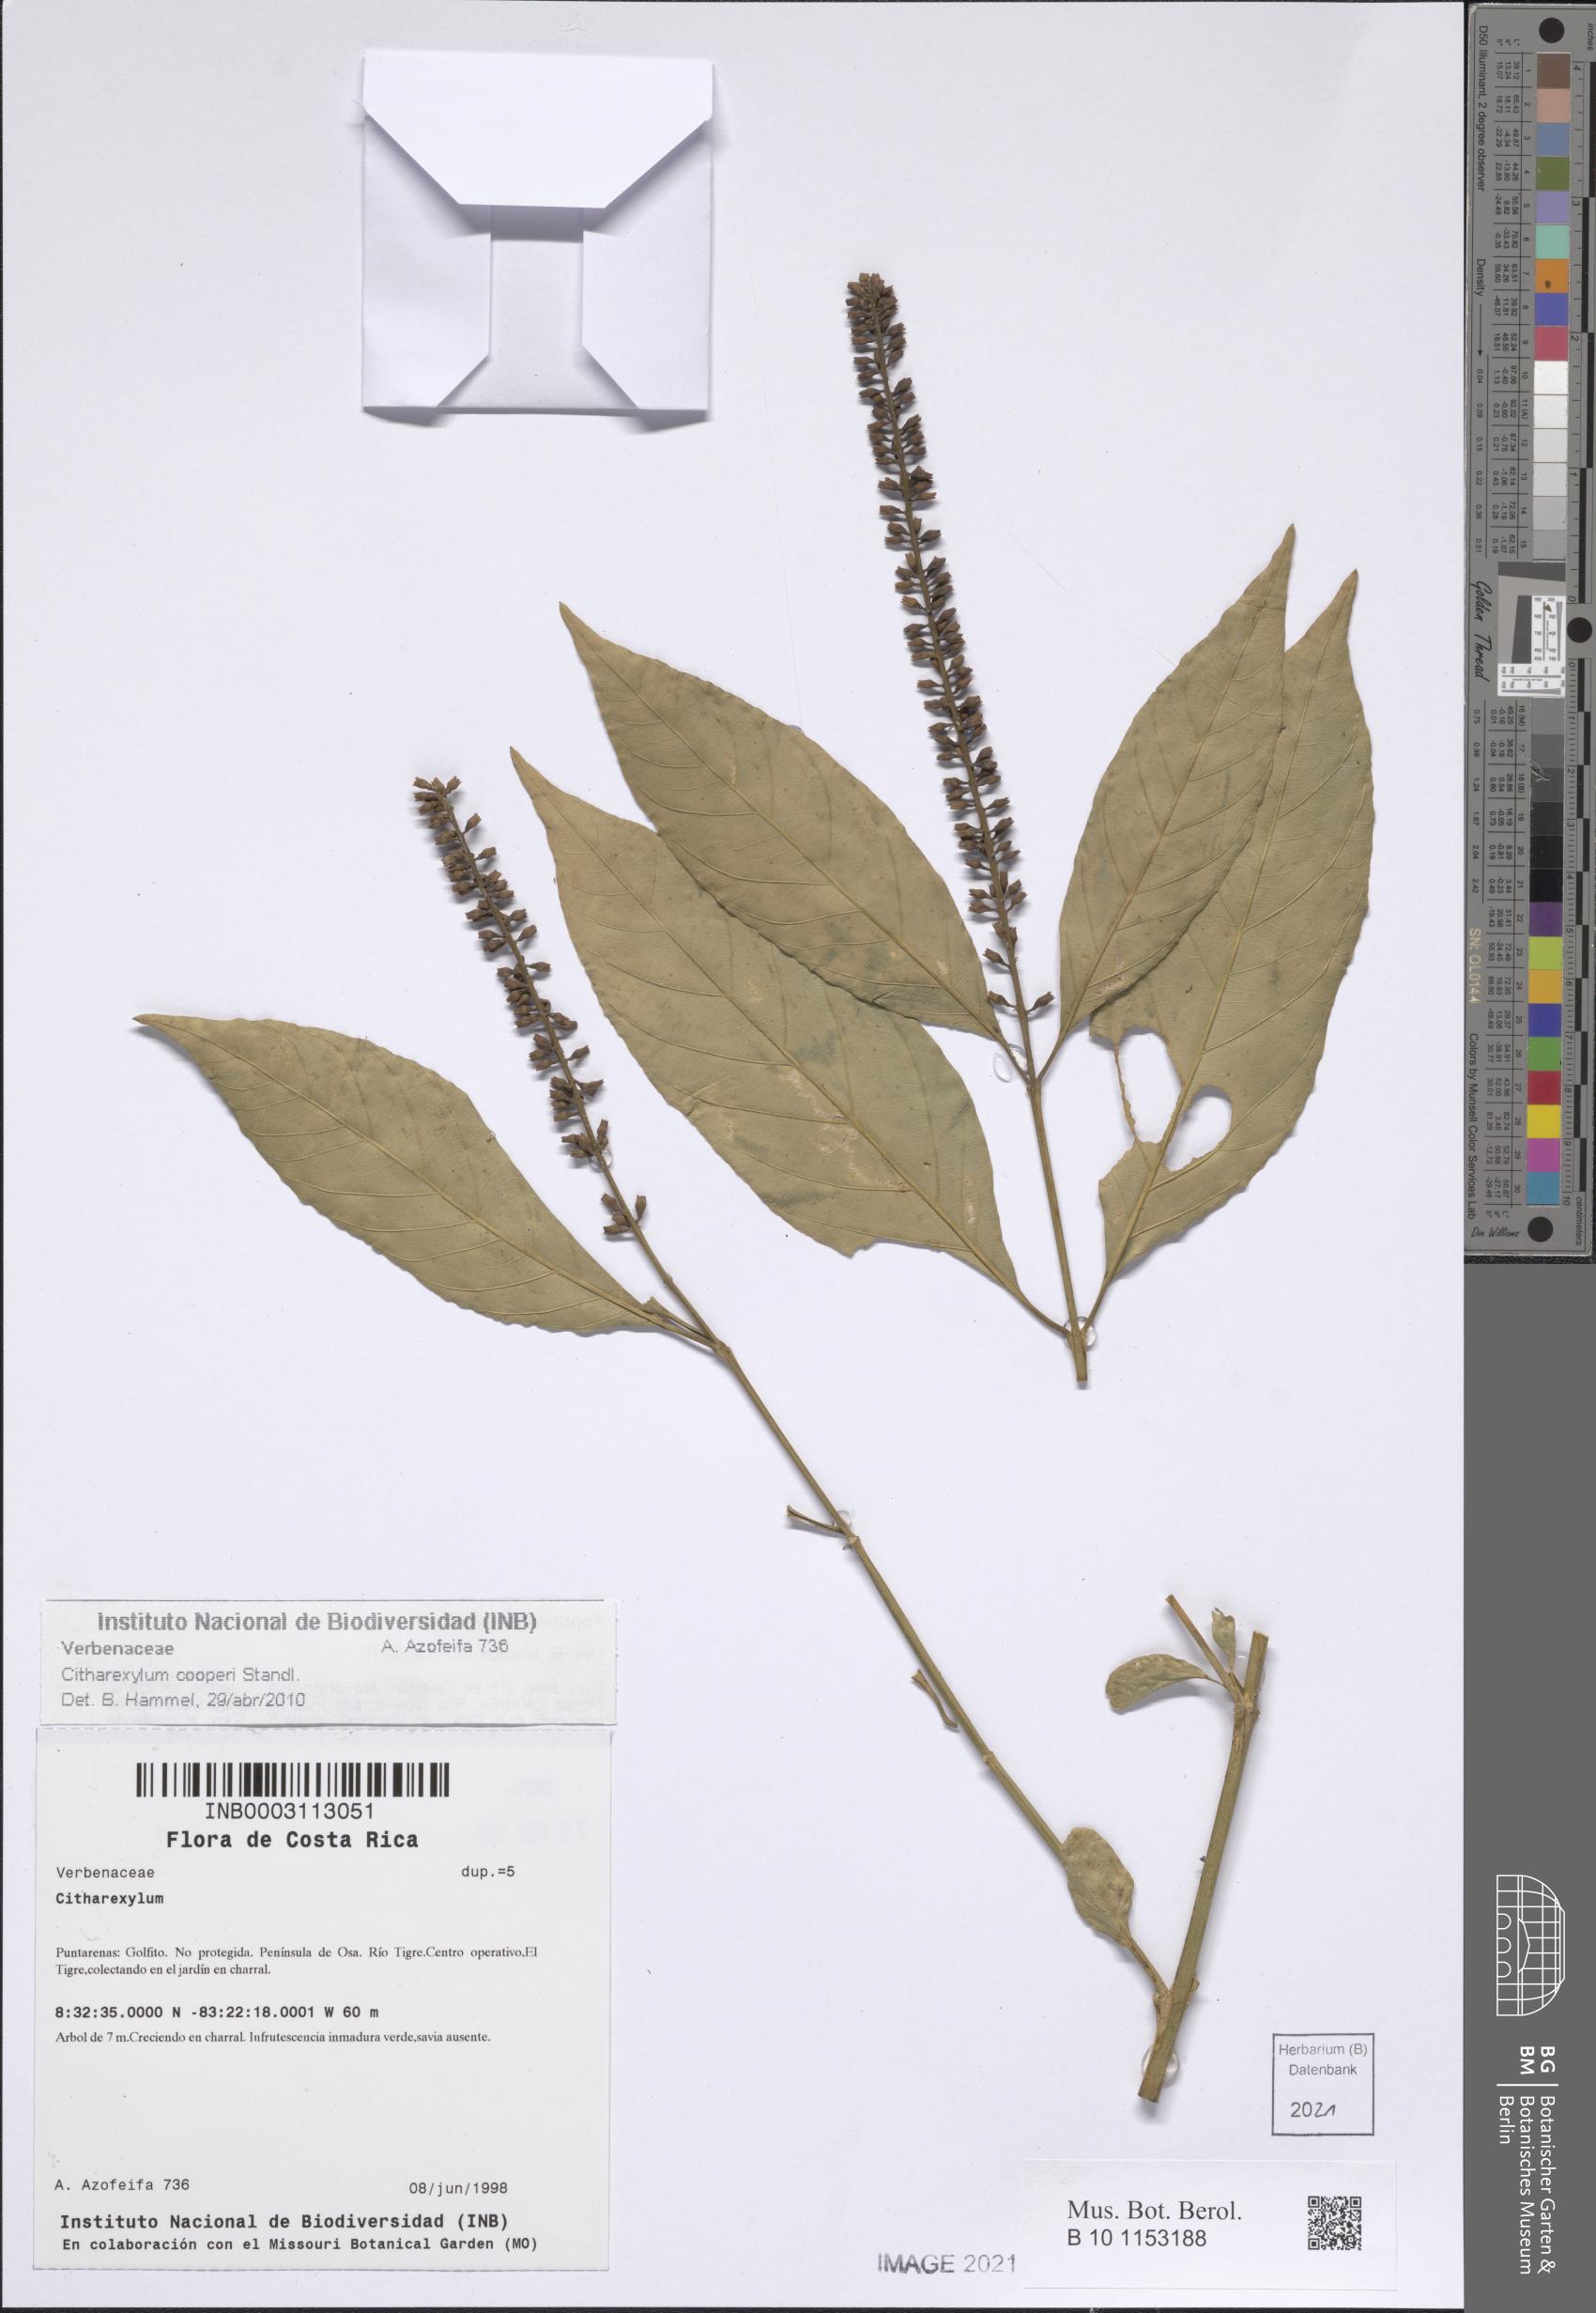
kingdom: Plantae
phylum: Tracheophyta
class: Magnoliopsida
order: Lamiales
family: Verbenaceae
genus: Citharexylum
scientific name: Citharexylum cooperi
